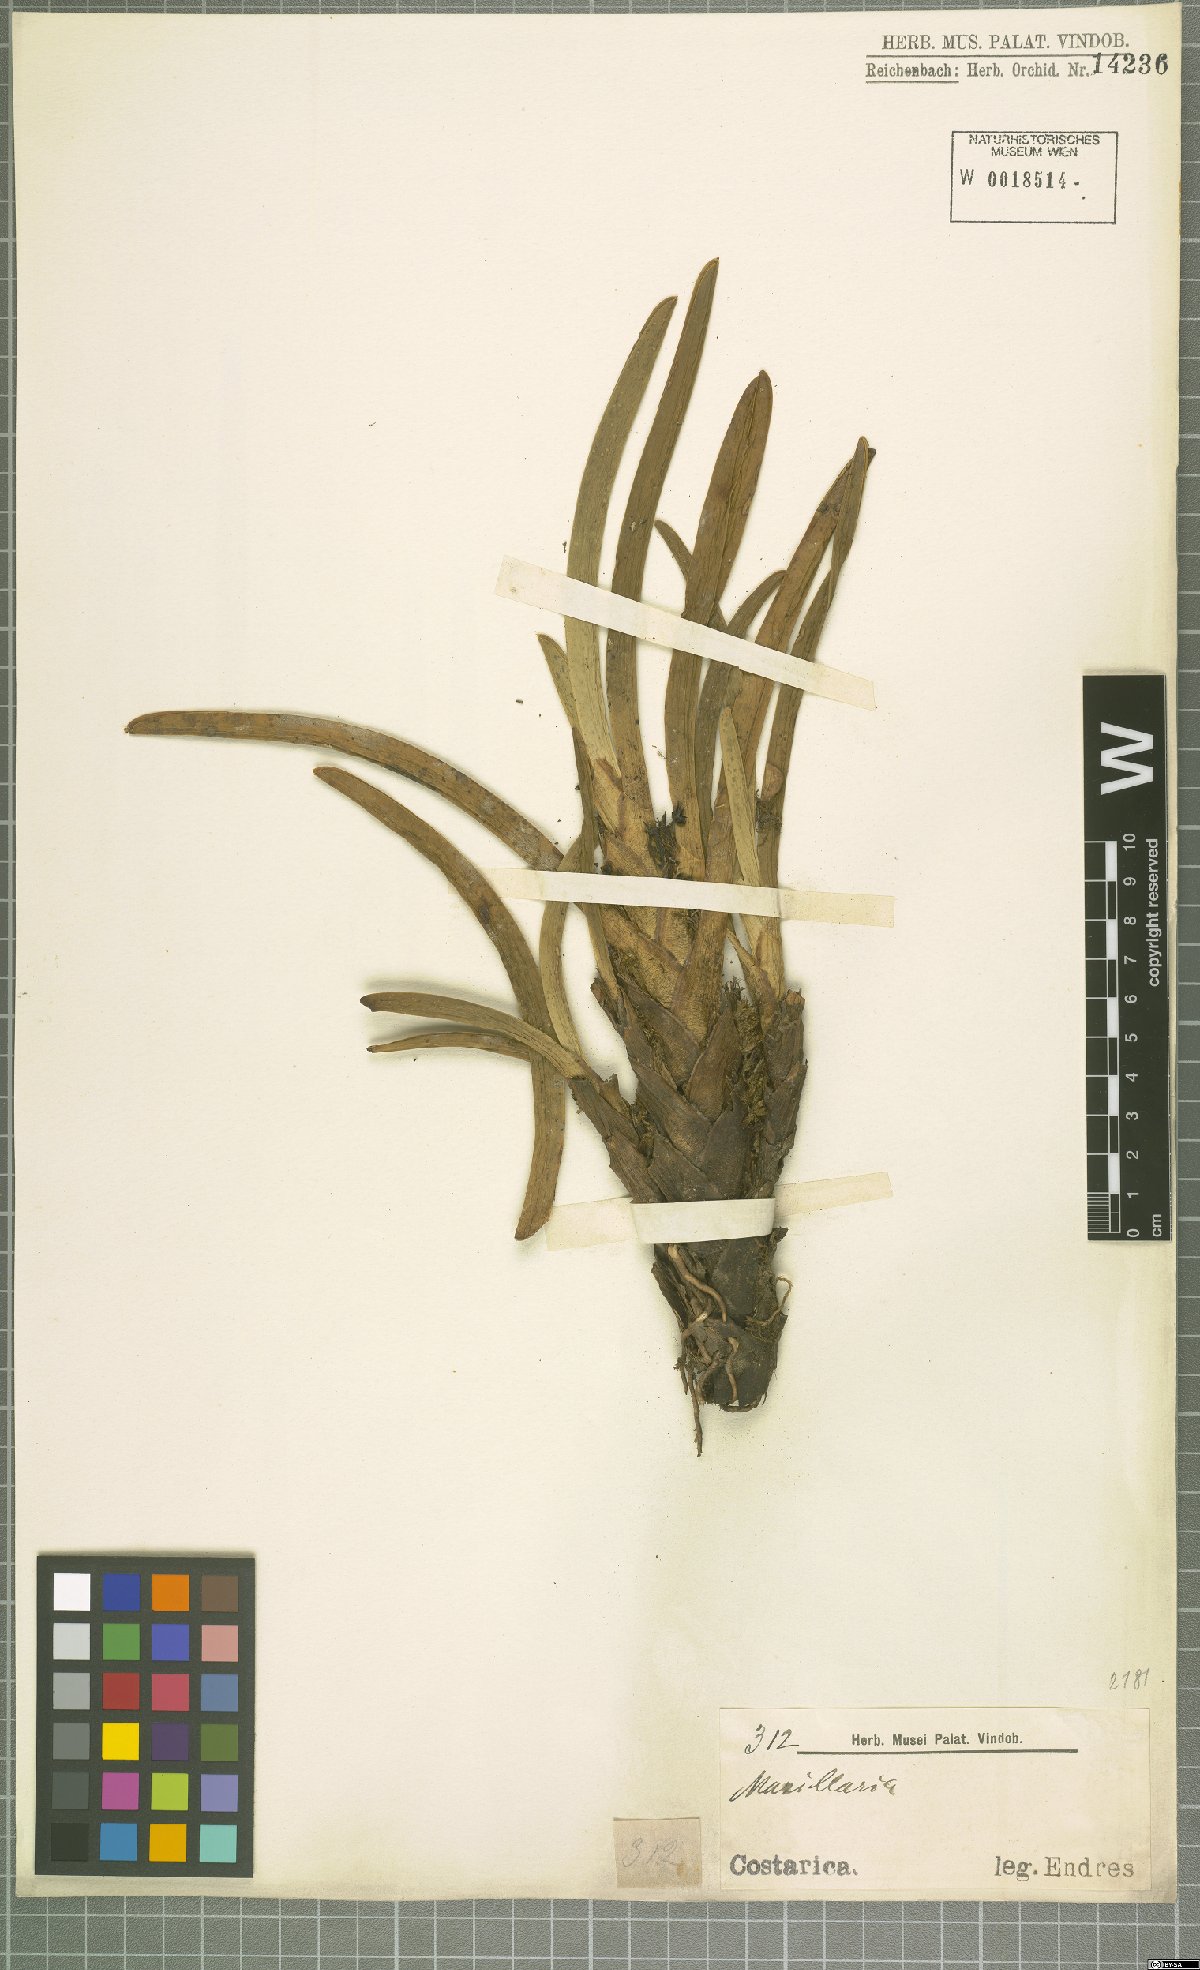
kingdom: Plantae
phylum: Tracheophyta
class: Liliopsida
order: Asparagales
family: Orchidaceae
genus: Maxillaria
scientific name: Maxillaria
